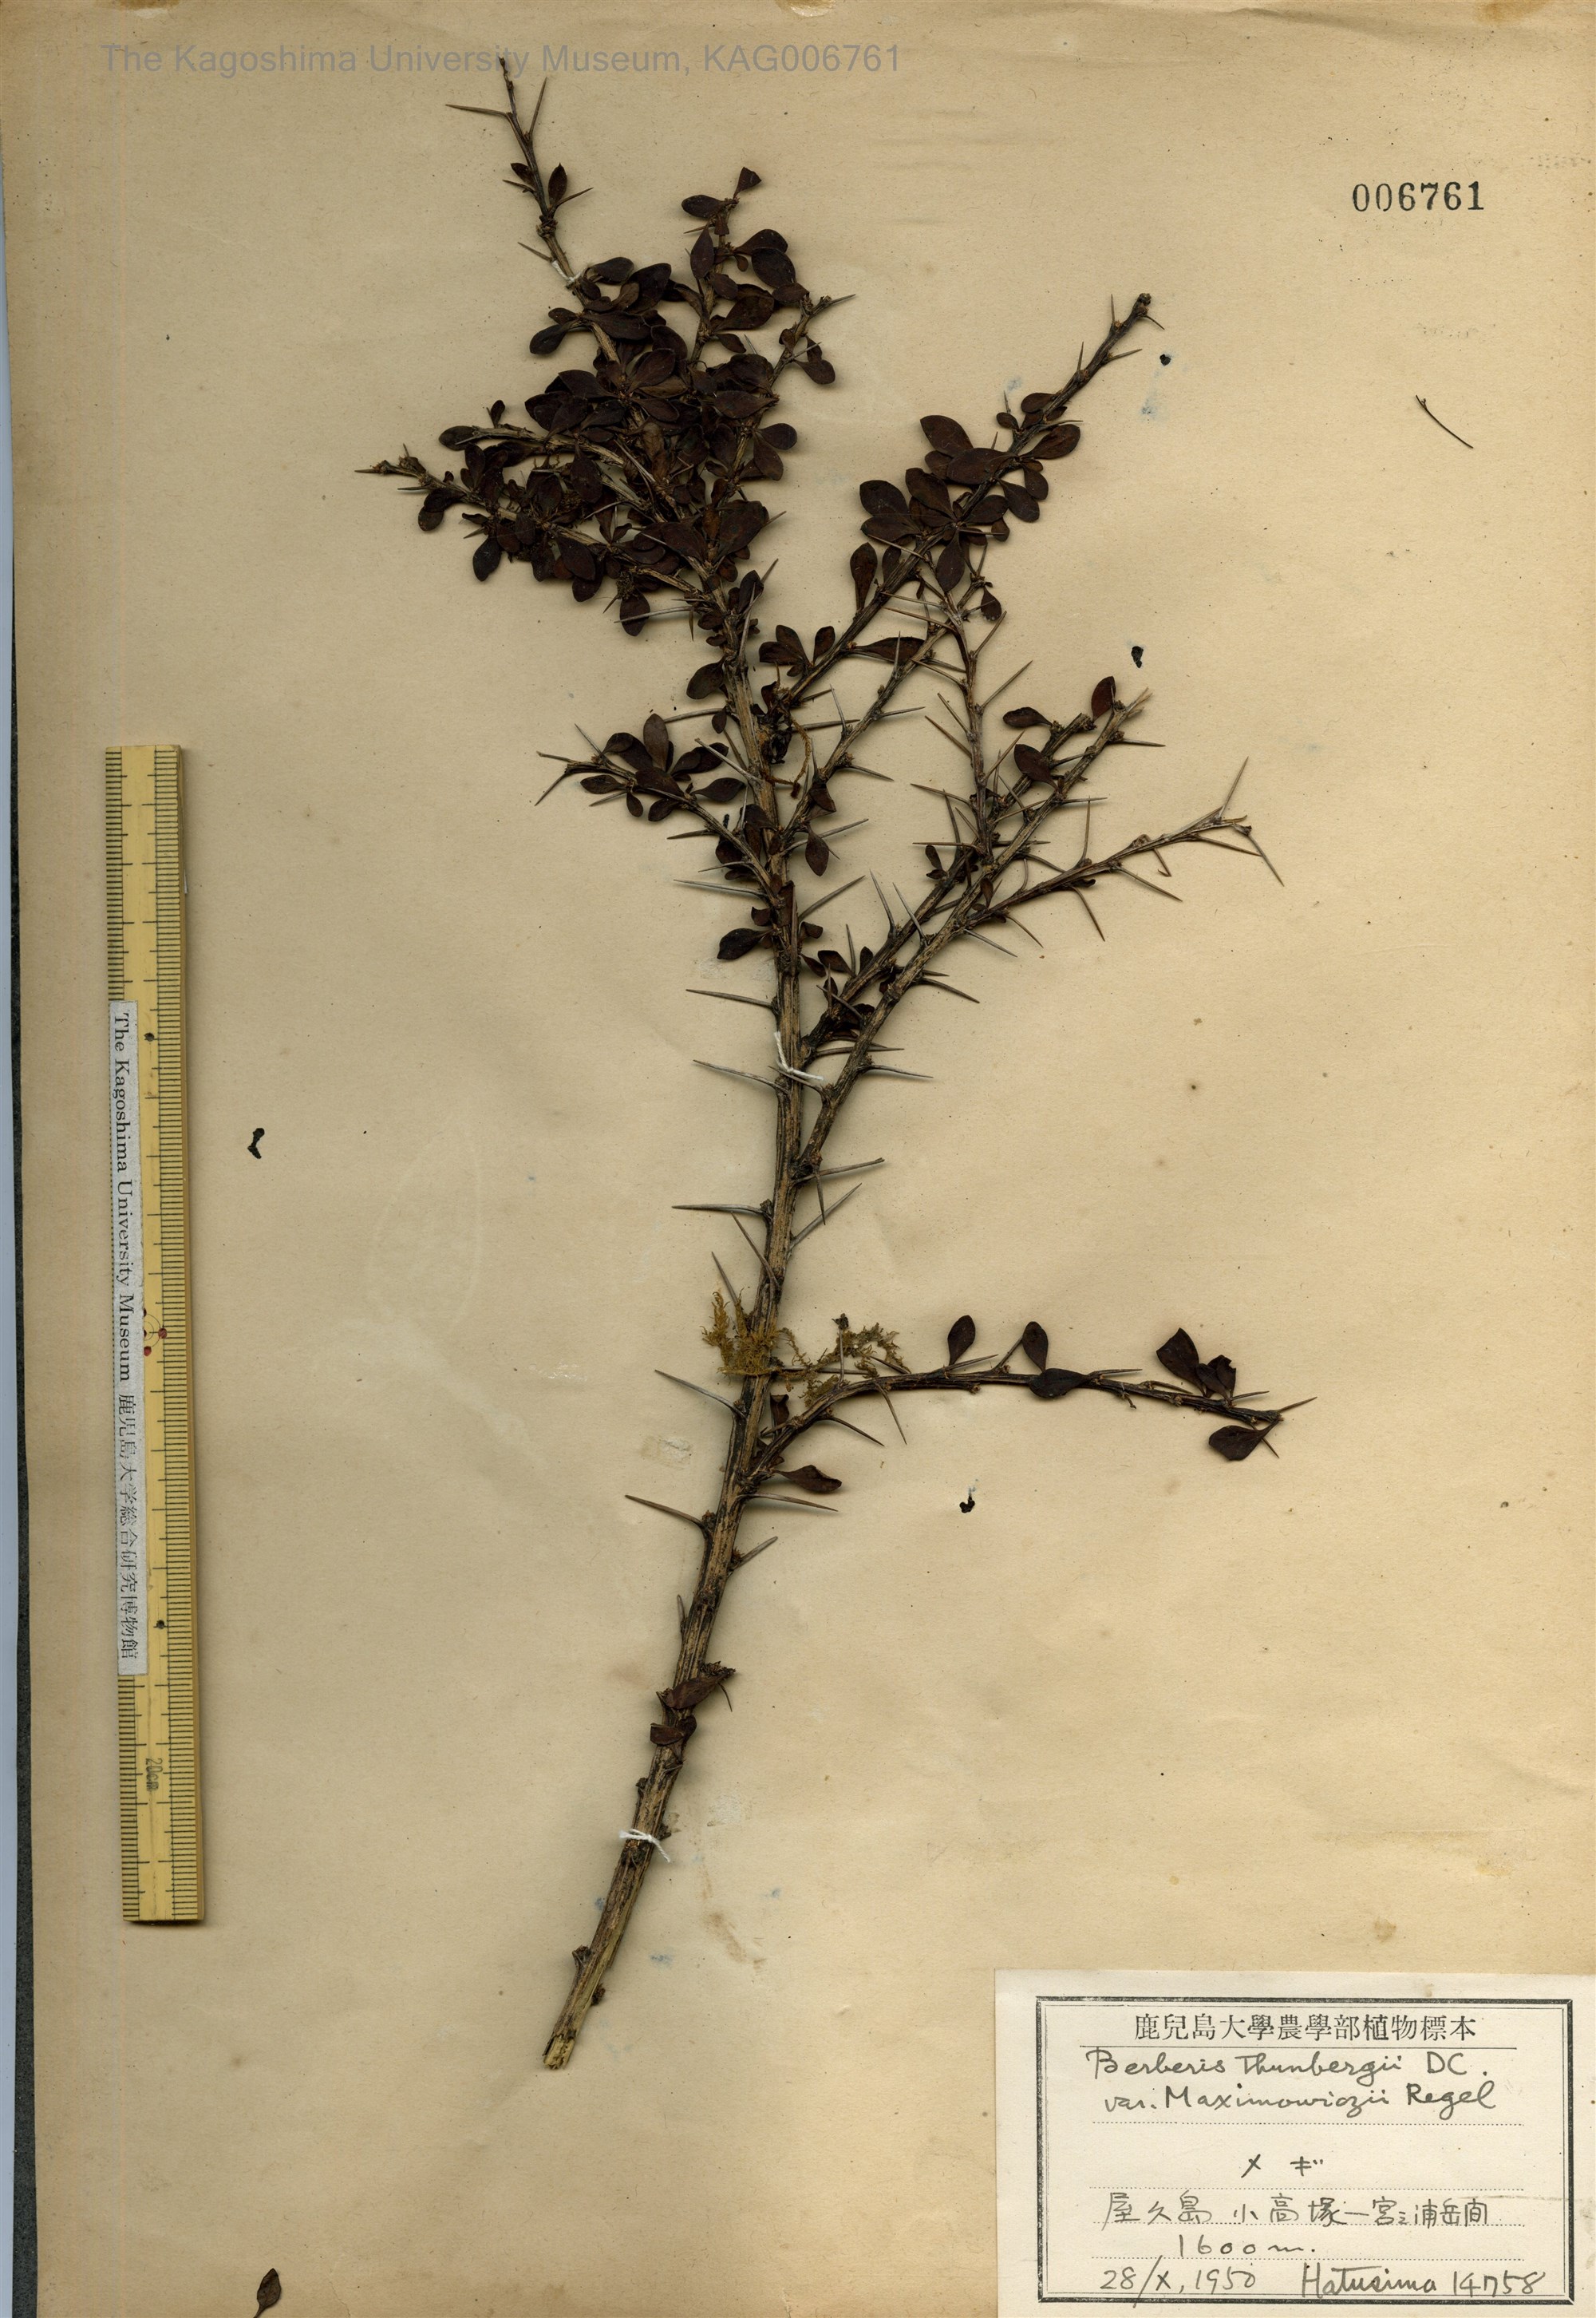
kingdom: Plantae
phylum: Tracheophyta
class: Magnoliopsida
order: Ranunculales
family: Berberidaceae
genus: Berberis
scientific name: Berberis thunbergii
